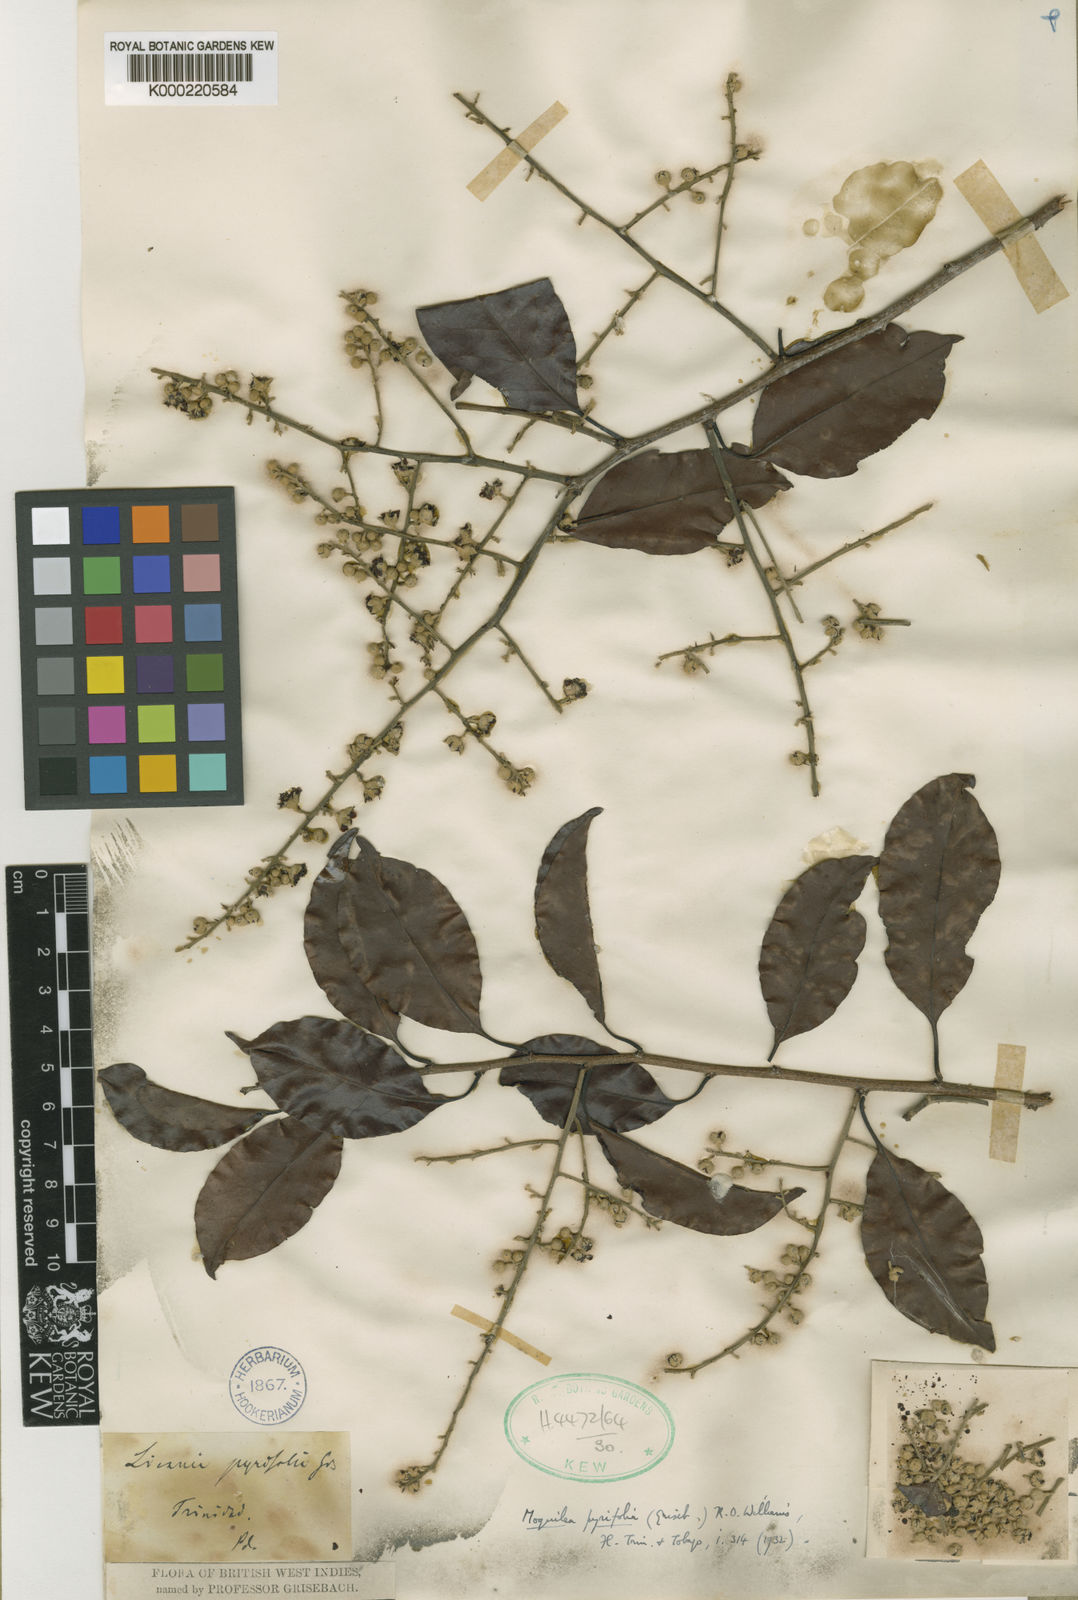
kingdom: Plantae
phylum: Tracheophyta
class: Magnoliopsida
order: Malpighiales
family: Chrysobalanaceae
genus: Moquilea
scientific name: Moquilea pyrifolia
